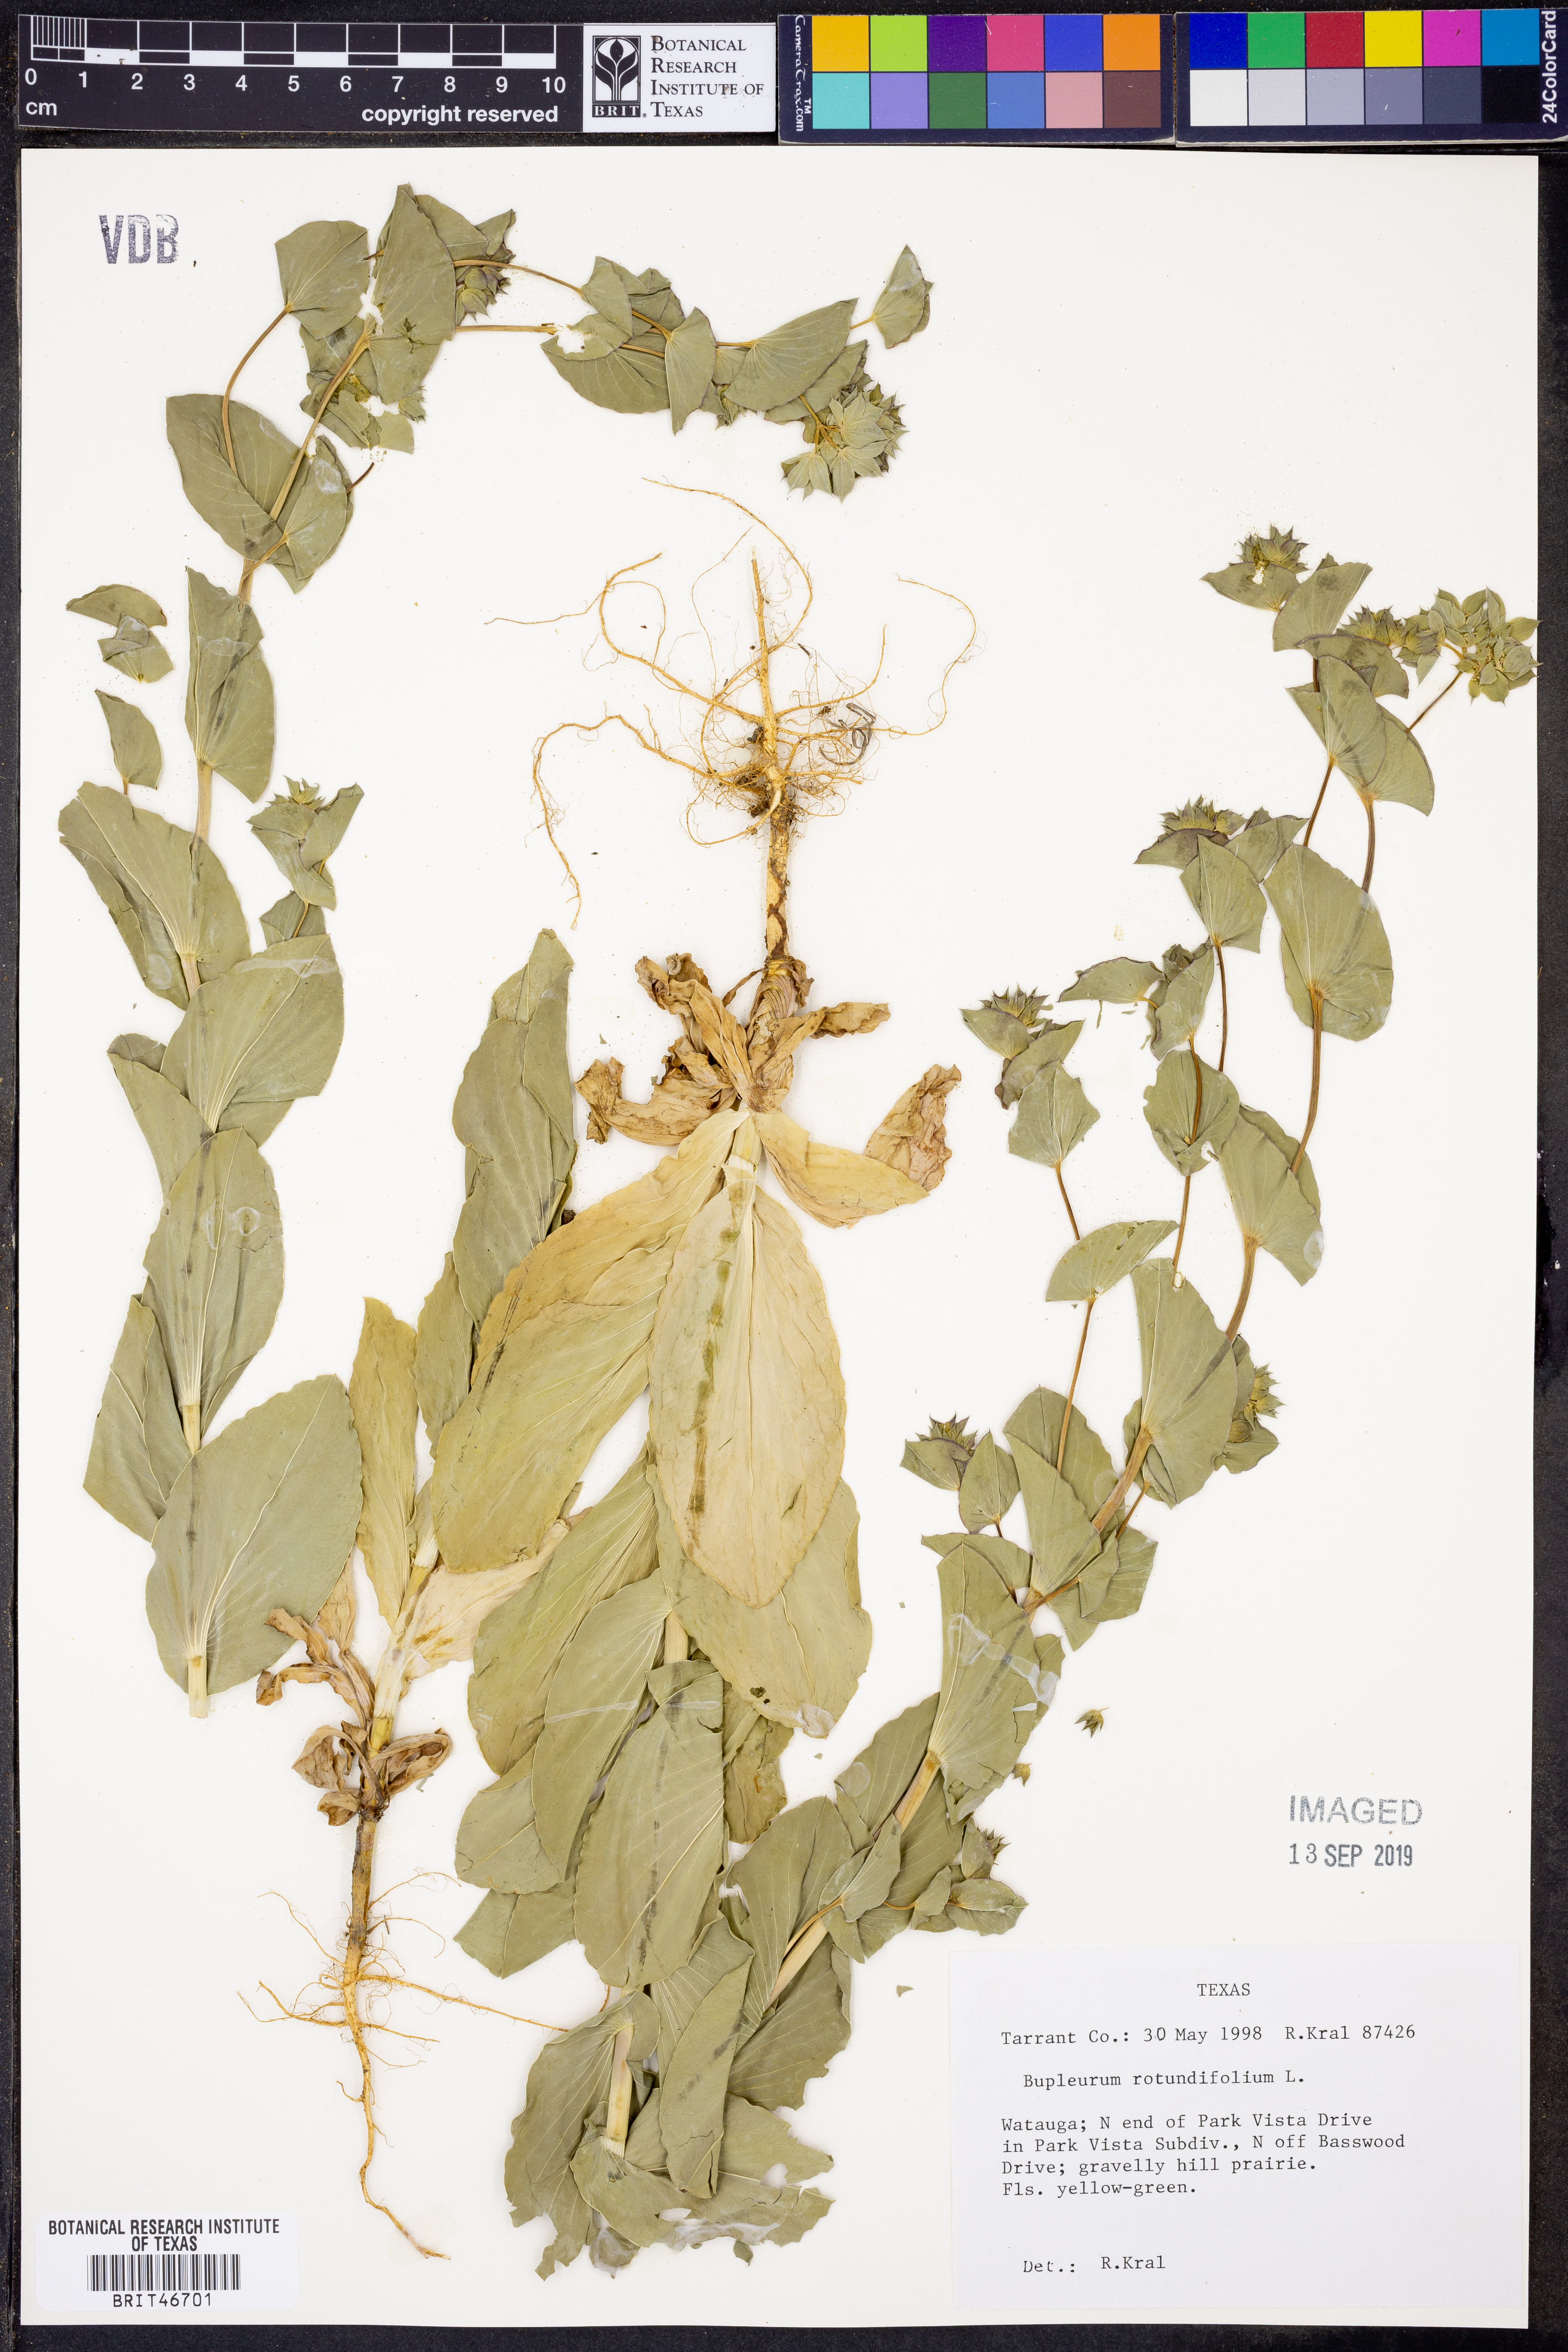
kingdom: Plantae
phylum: Tracheophyta
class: Magnoliopsida
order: Apiales
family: Apiaceae
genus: Bupleurum
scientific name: Bupleurum rotundifolium
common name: Thorow-wax
